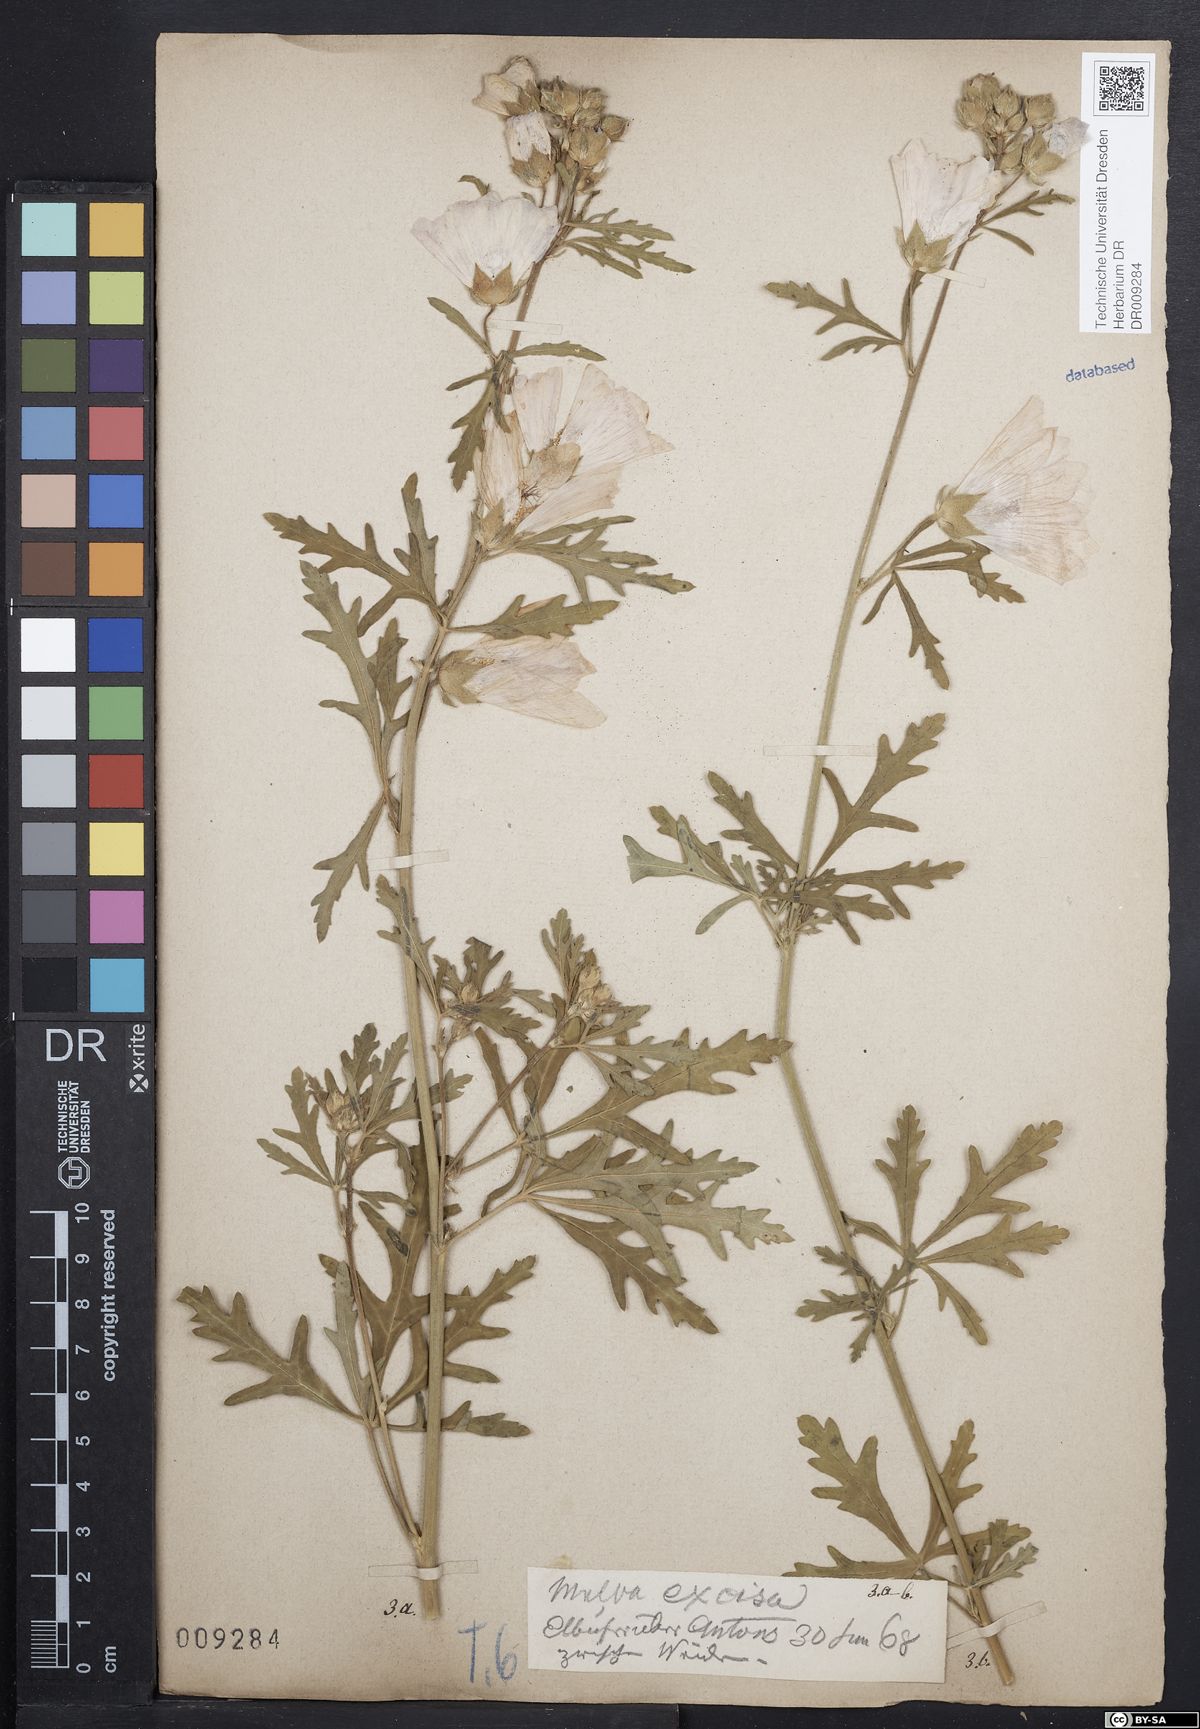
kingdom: Plantae
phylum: Tracheophyta
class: Magnoliopsida
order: Malvales
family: Malvaceae
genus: Malva
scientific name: Malva alcea
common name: Greater musk-mallow
